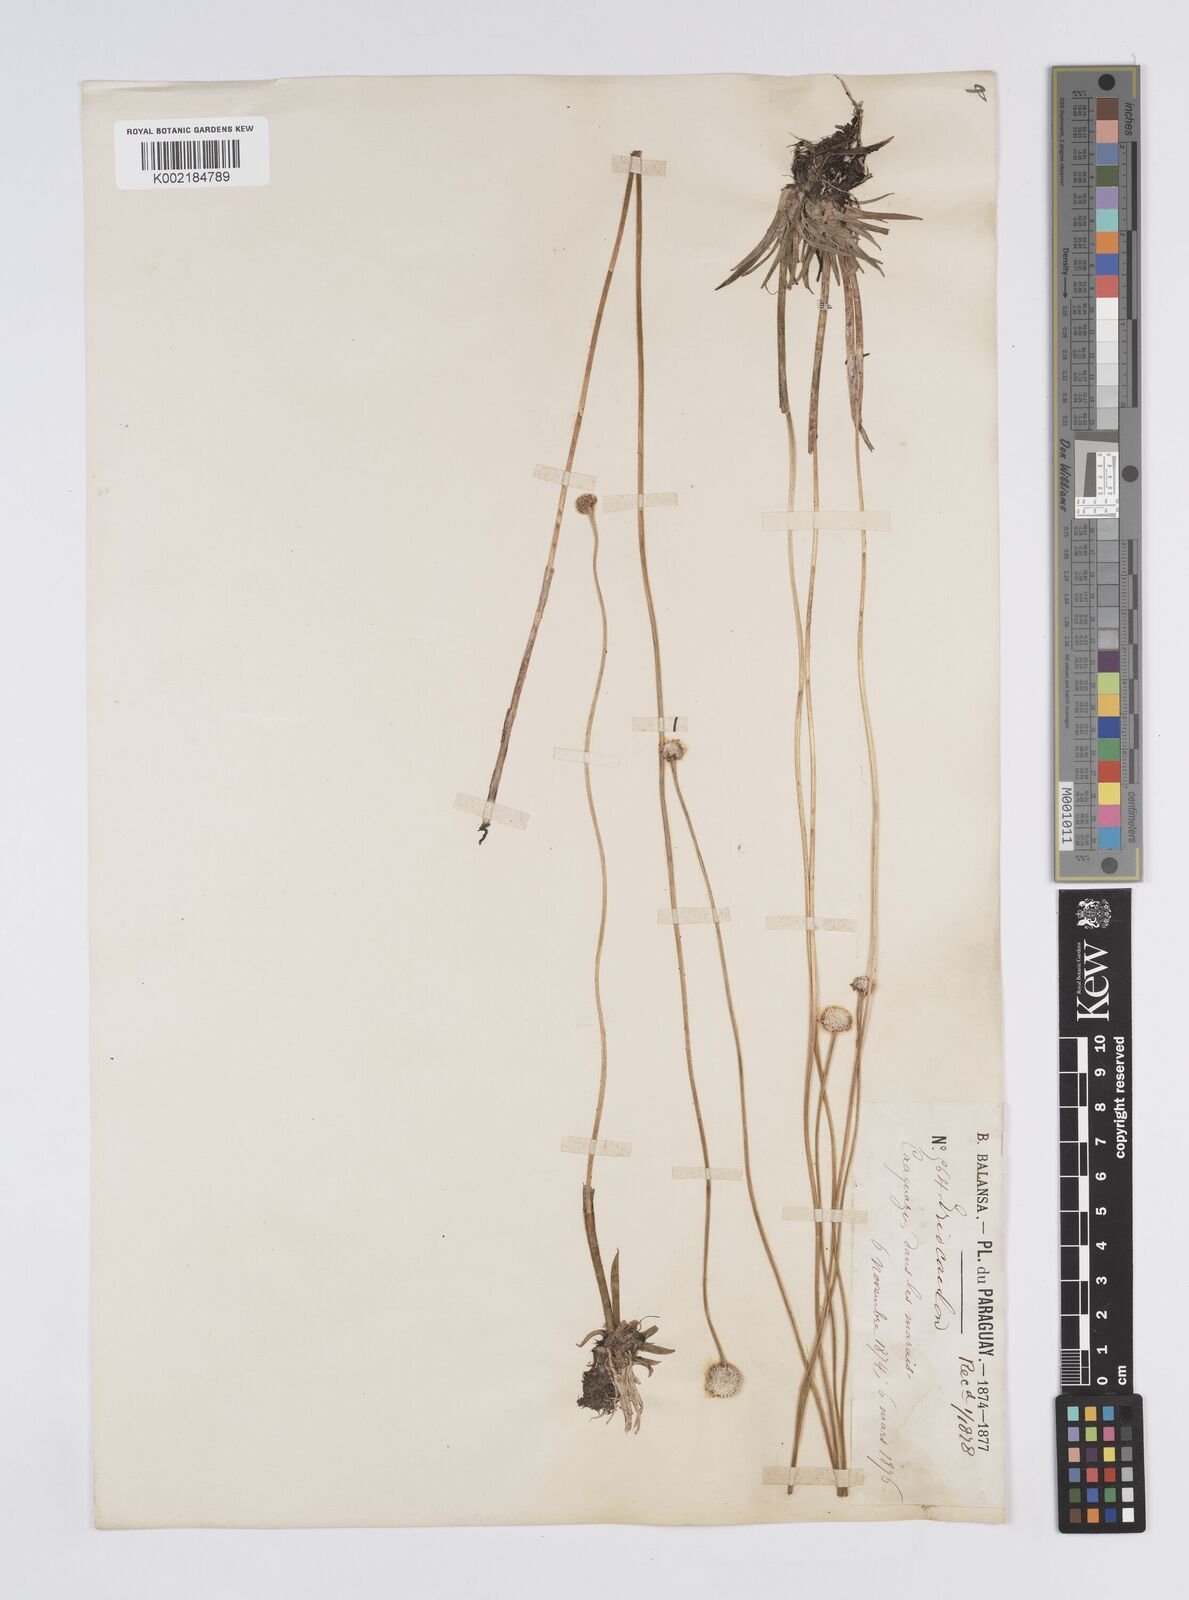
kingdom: Plantae
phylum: Tracheophyta
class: Liliopsida
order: Poales
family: Eriocaulaceae
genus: Eriocaulon
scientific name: Eriocaulon sellowianum
